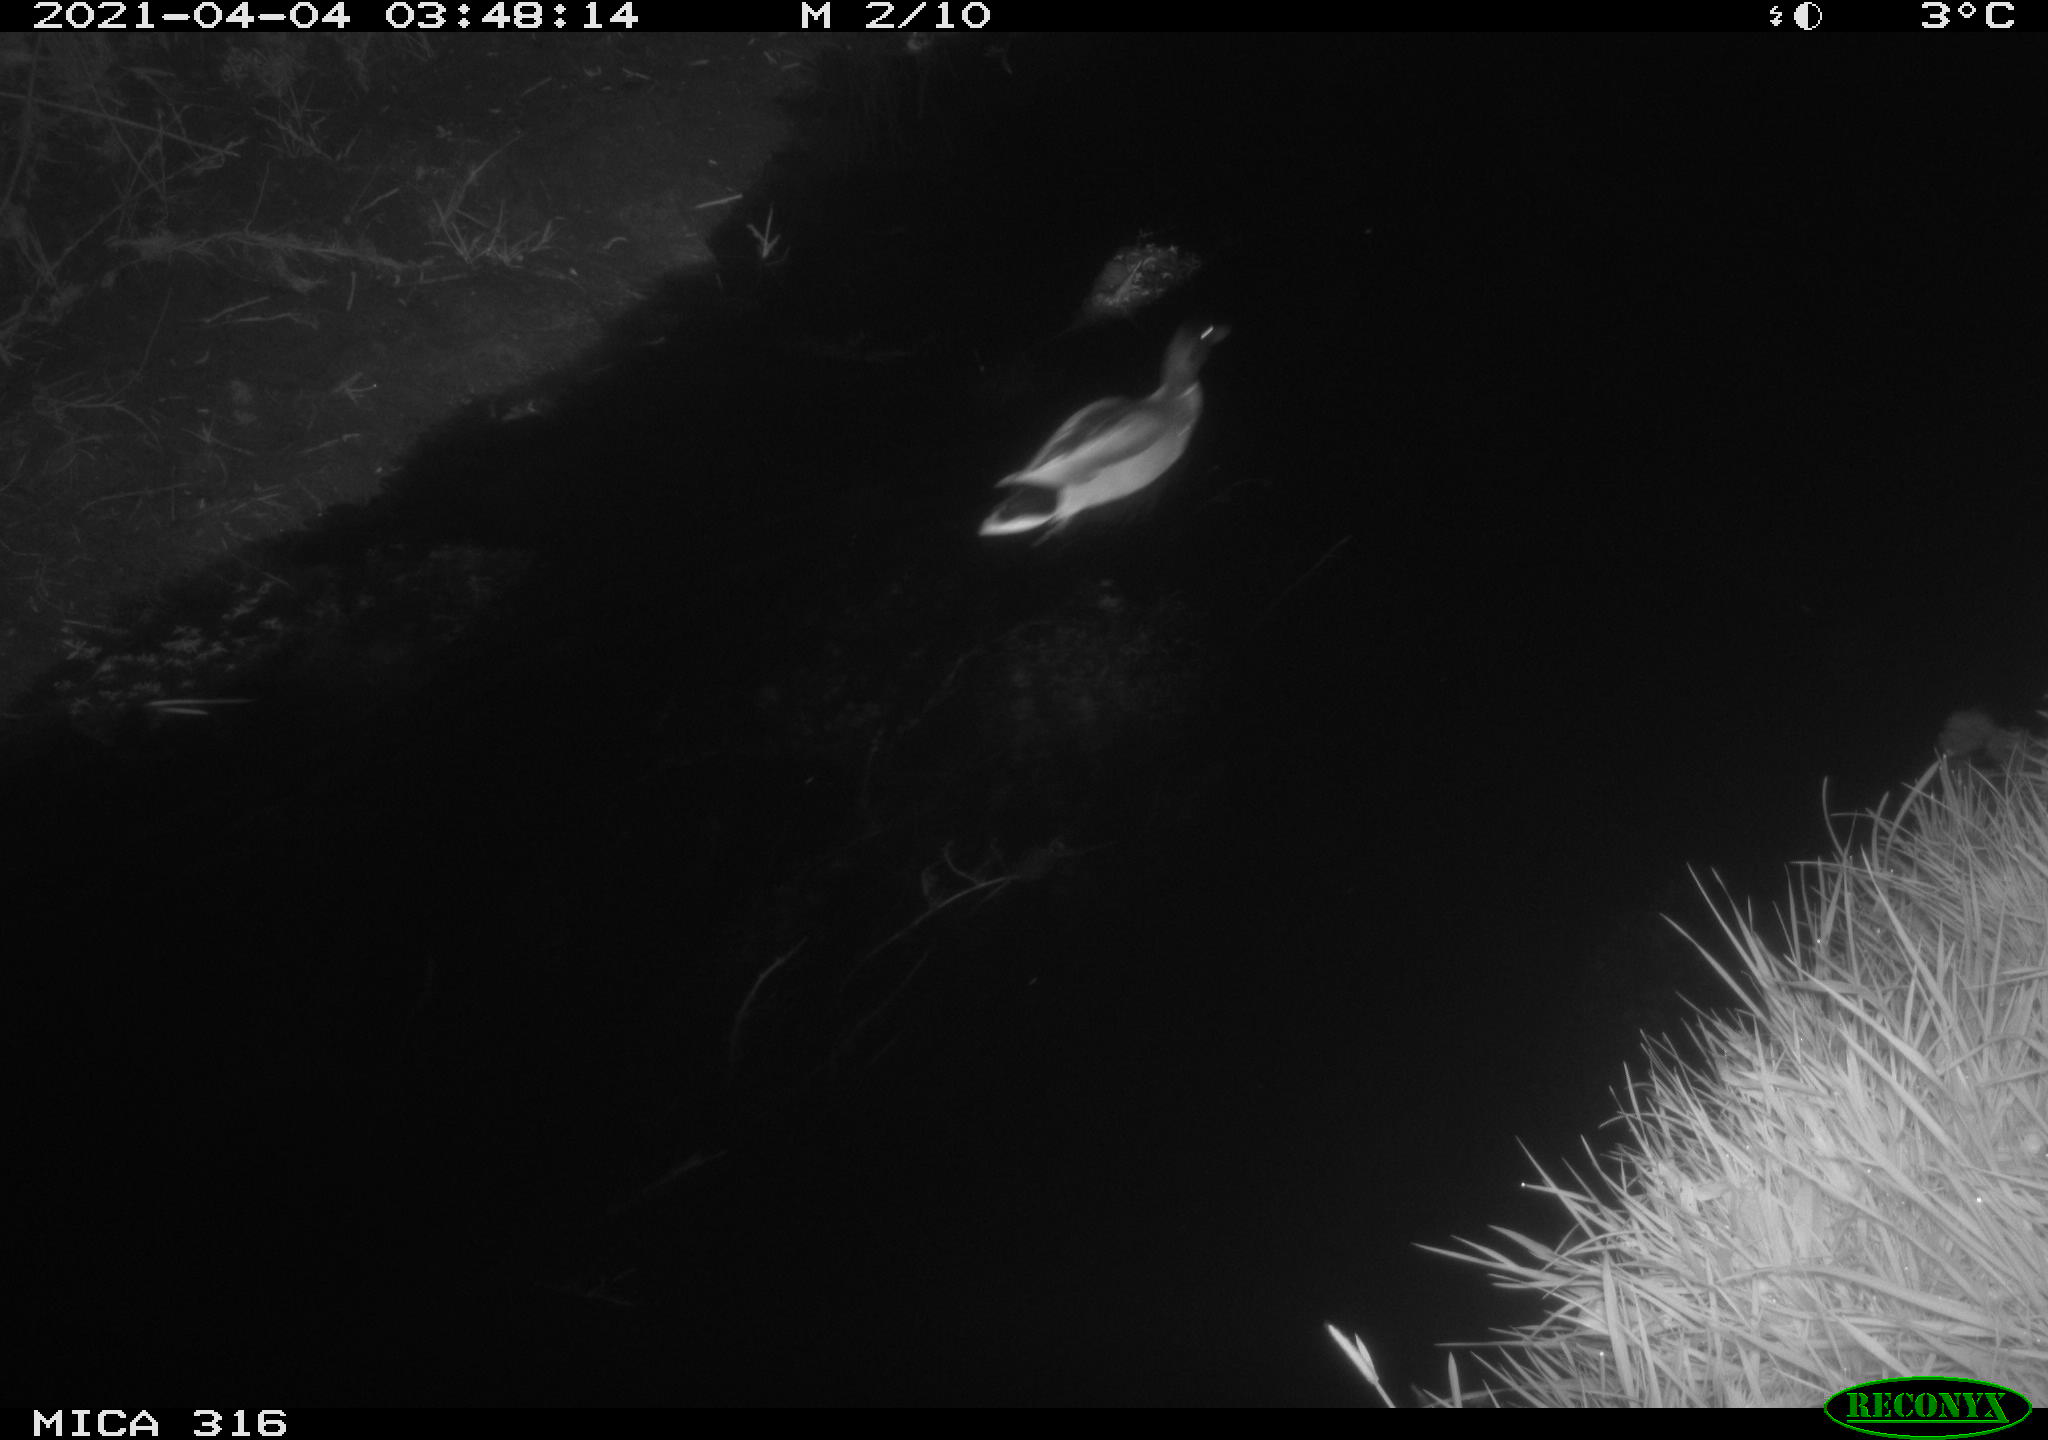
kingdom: Animalia
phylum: Chordata
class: Aves
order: Anseriformes
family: Anatidae
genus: Anas
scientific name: Anas platyrhynchos
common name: Mallard
